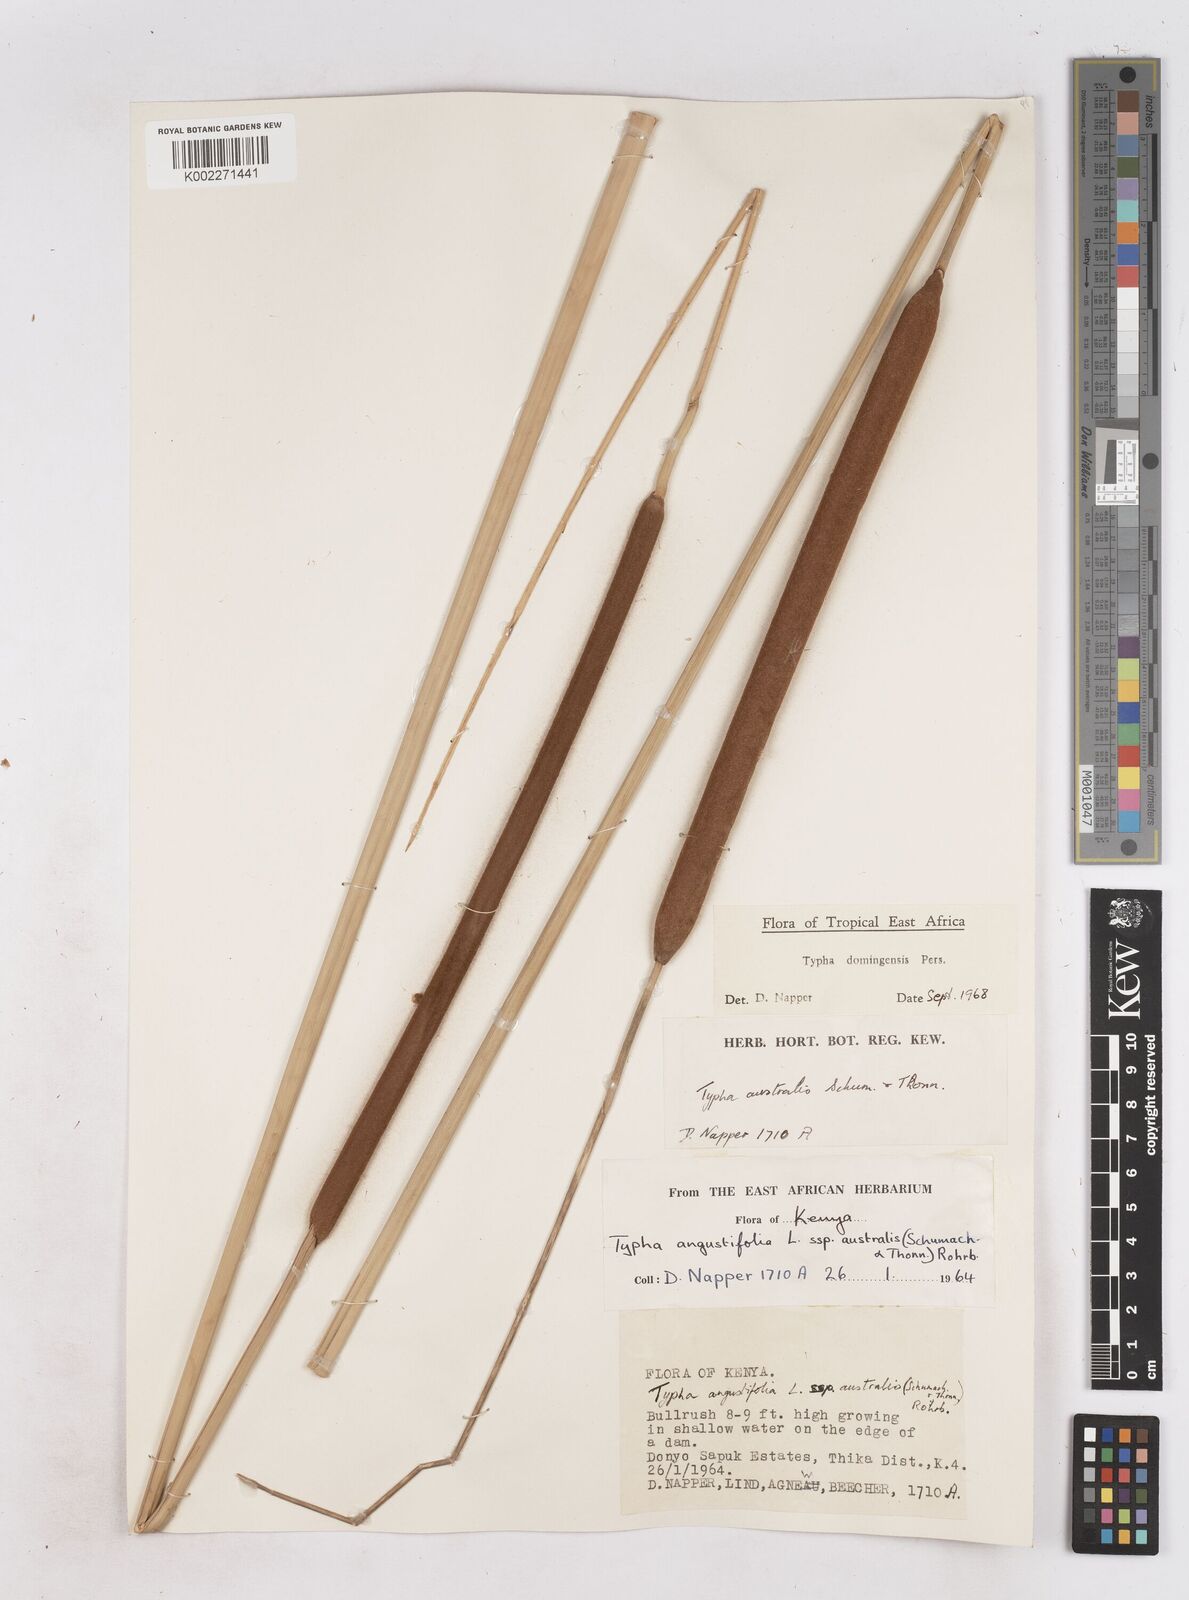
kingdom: Plantae
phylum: Tracheophyta
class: Liliopsida
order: Poales
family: Typhaceae
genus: Typha
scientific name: Typha domingensis
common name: Southern cattail
